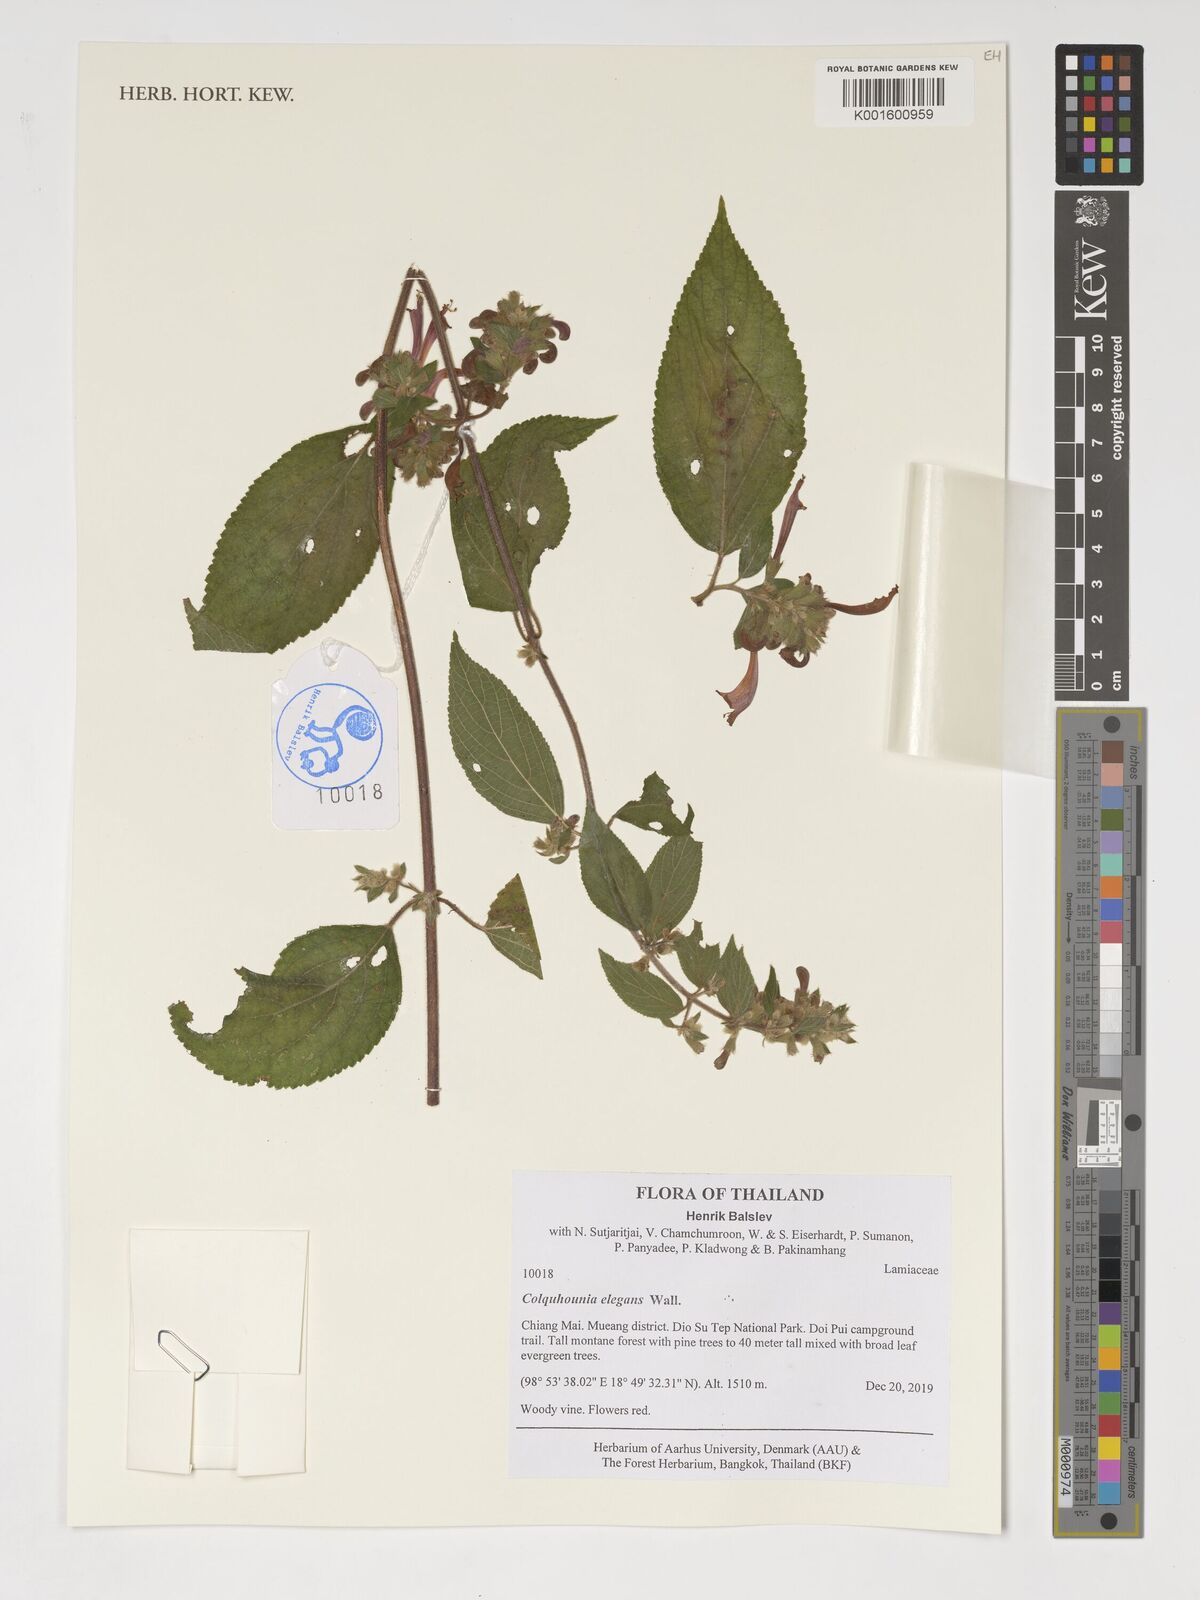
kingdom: Plantae
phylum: Tracheophyta
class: Magnoliopsida
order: Lamiales
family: Lamiaceae
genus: Colquhounia
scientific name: Colquhounia elegans
